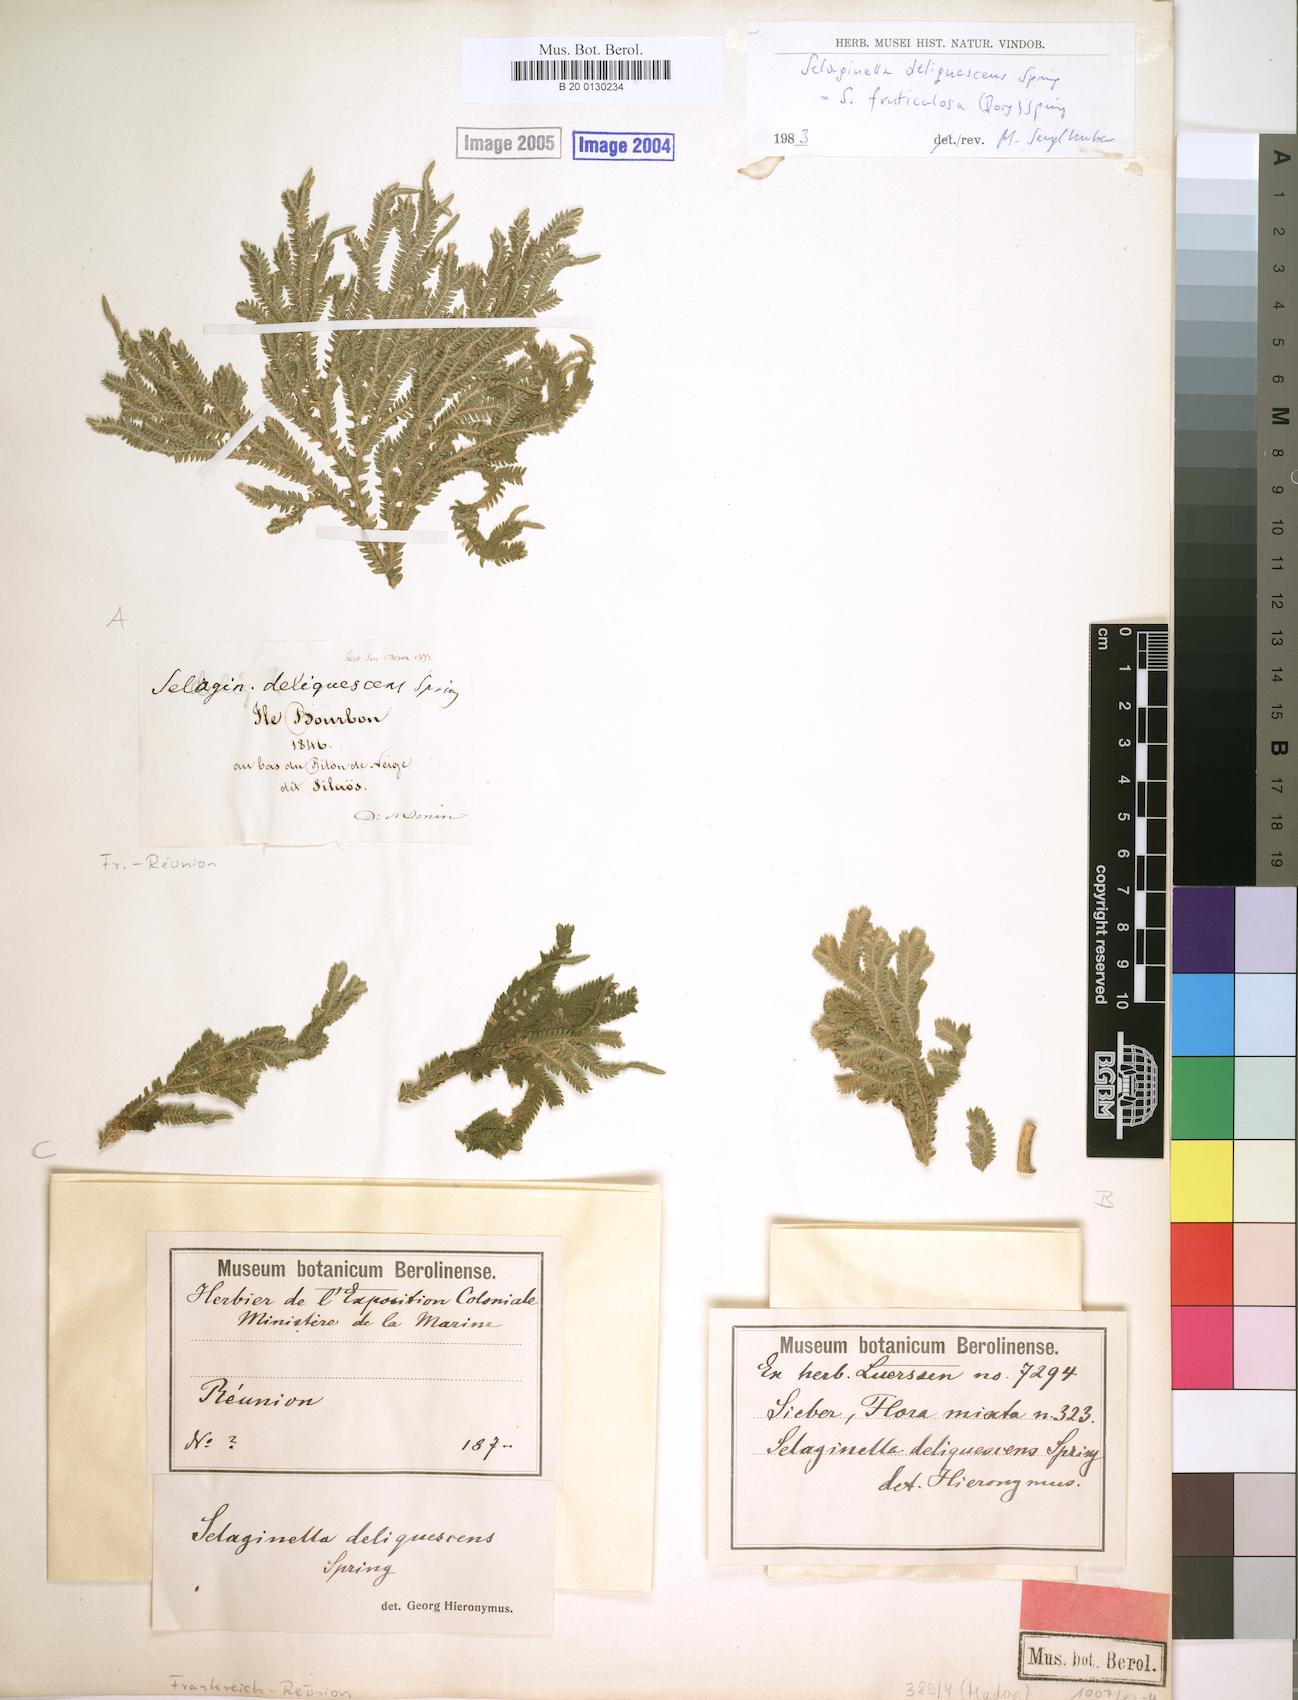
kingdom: Plantae
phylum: Tracheophyta
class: Lycopodiopsida
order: Selaginellales
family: Selaginellaceae
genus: Selaginella
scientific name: Selaginella fruticulosa
